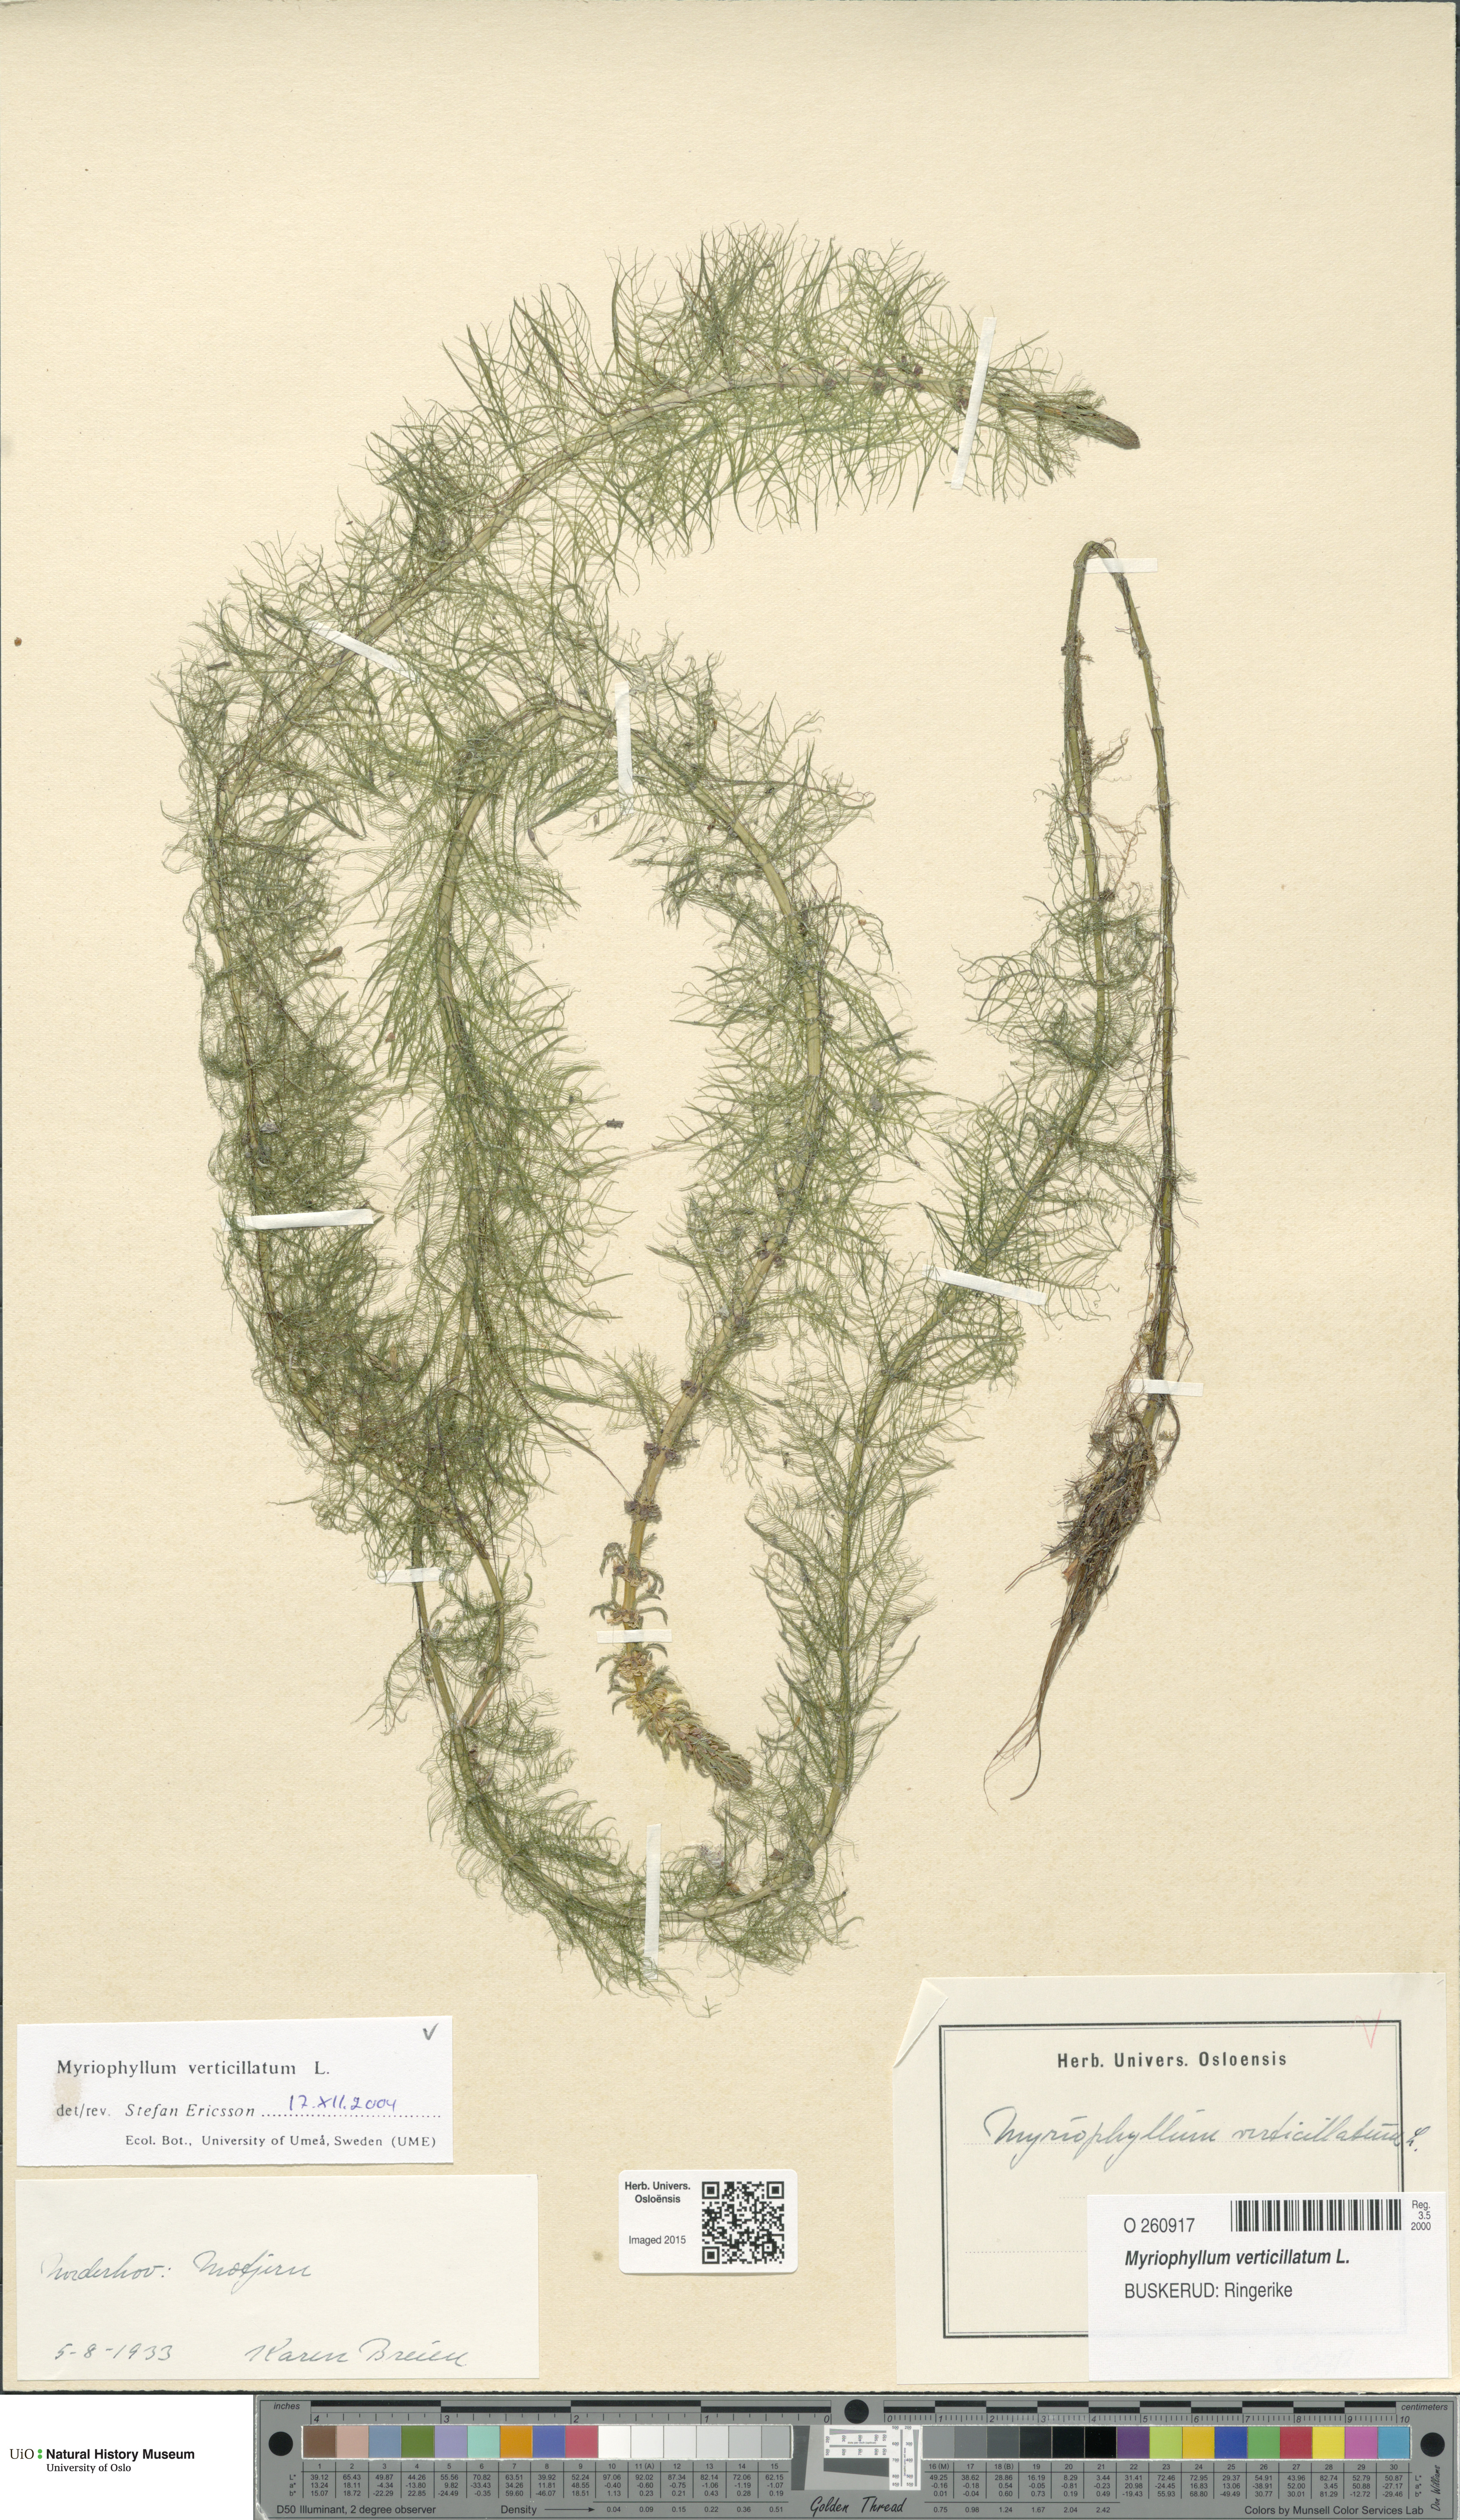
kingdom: Plantae
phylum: Tracheophyta
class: Magnoliopsida
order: Saxifragales
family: Haloragaceae
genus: Myriophyllum
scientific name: Myriophyllum verticillatum
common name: Whorled water-milfoil
